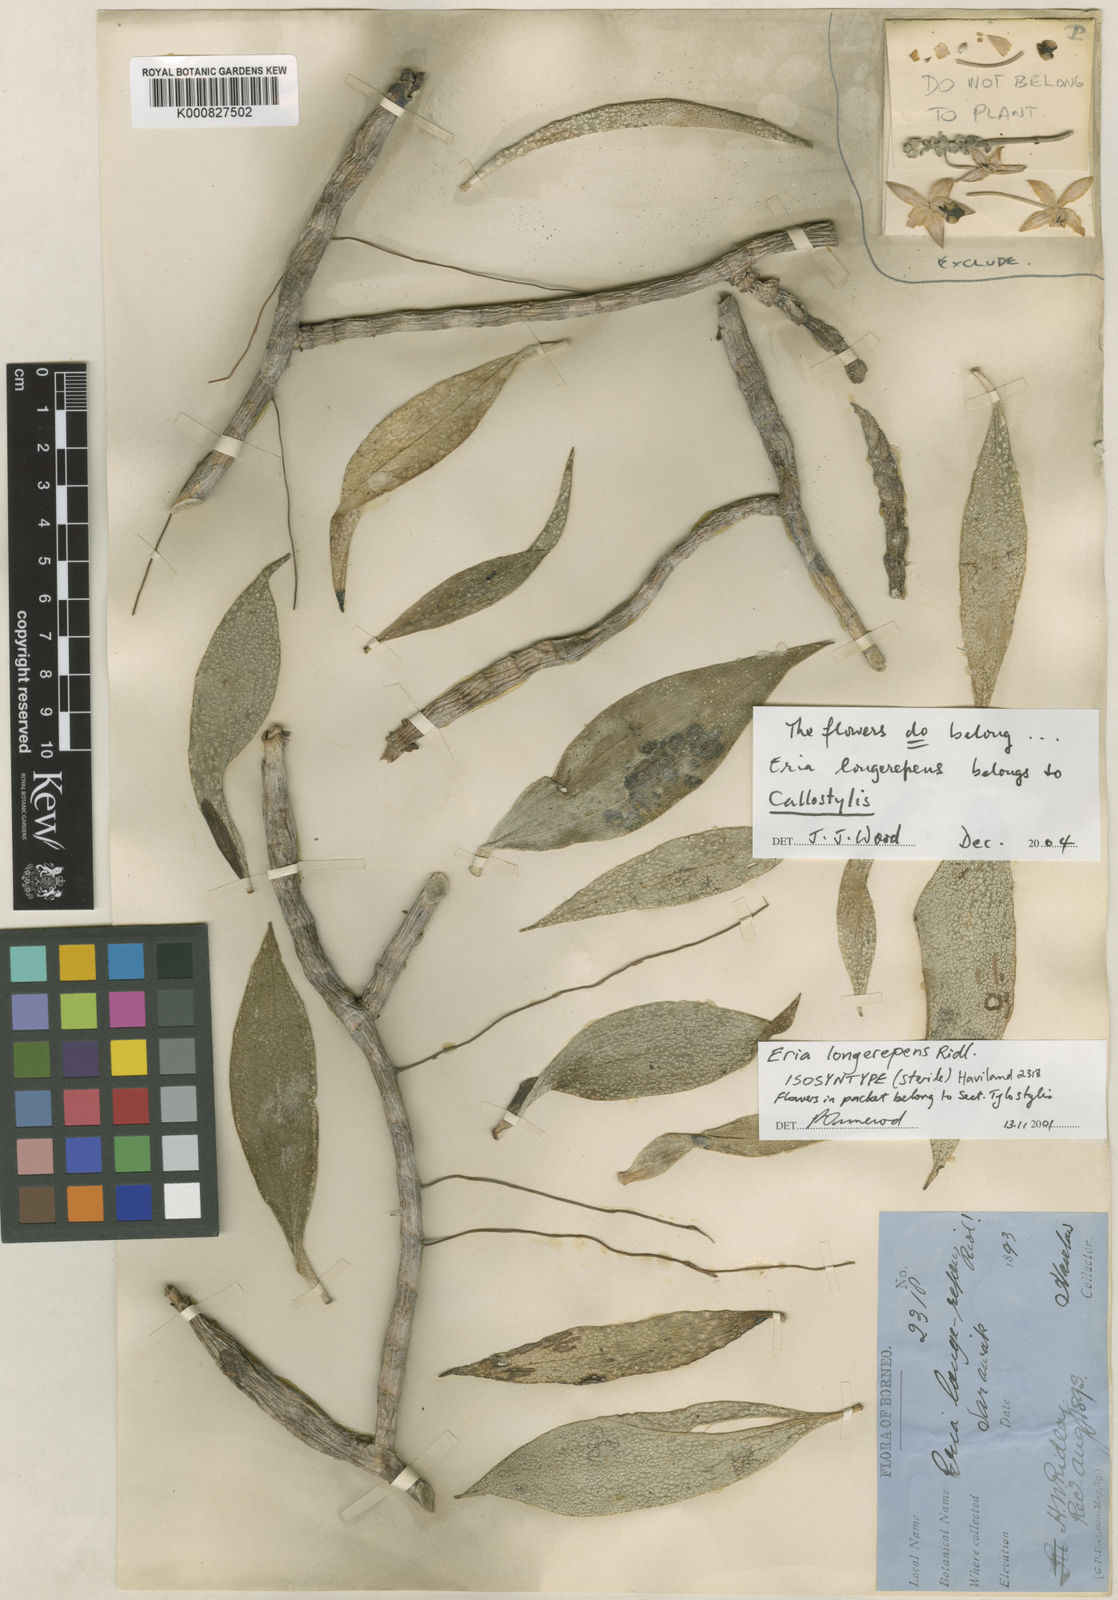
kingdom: Plantae
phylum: Tracheophyta
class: Liliopsida
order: Asparagales
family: Orchidaceae
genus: Cylindrolobus
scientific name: Cylindrolobus longerepens
